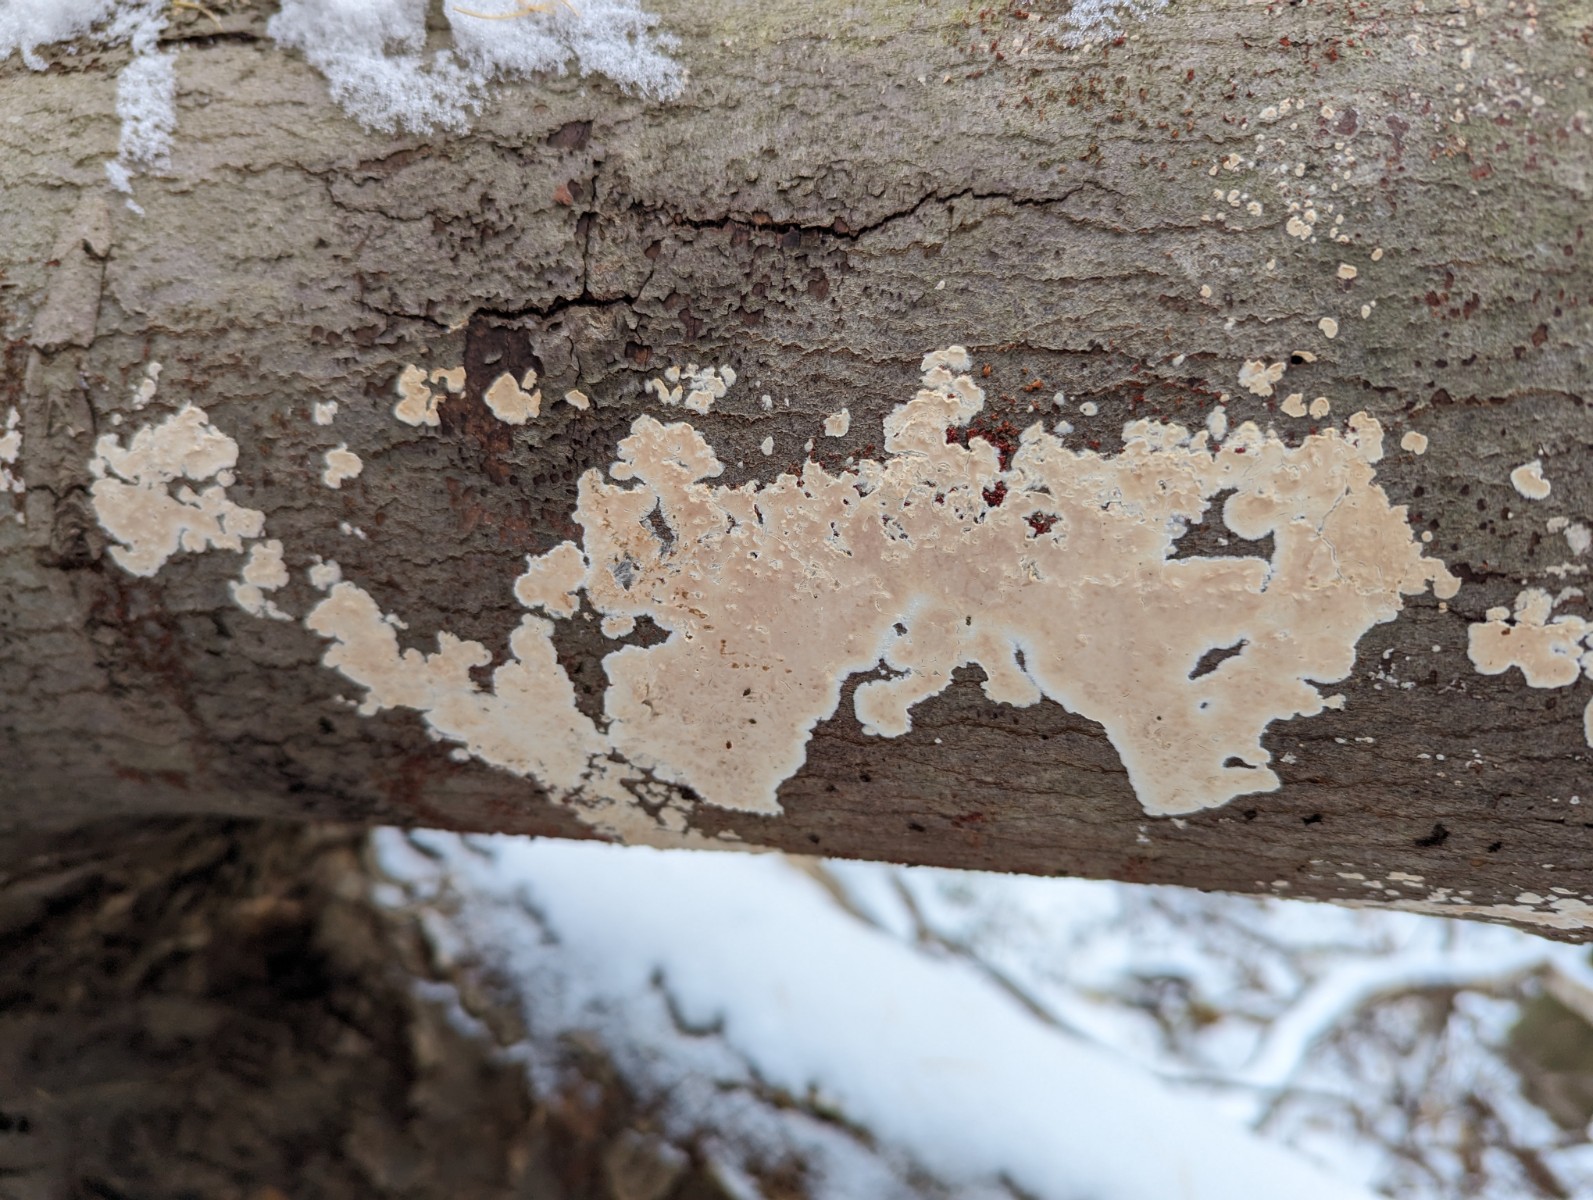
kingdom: Fungi
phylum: Basidiomycota
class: Agaricomycetes
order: Agaricales
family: Physalacriaceae
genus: Cylindrobasidium
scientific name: Cylindrobasidium evolvens
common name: sprækkehinde
